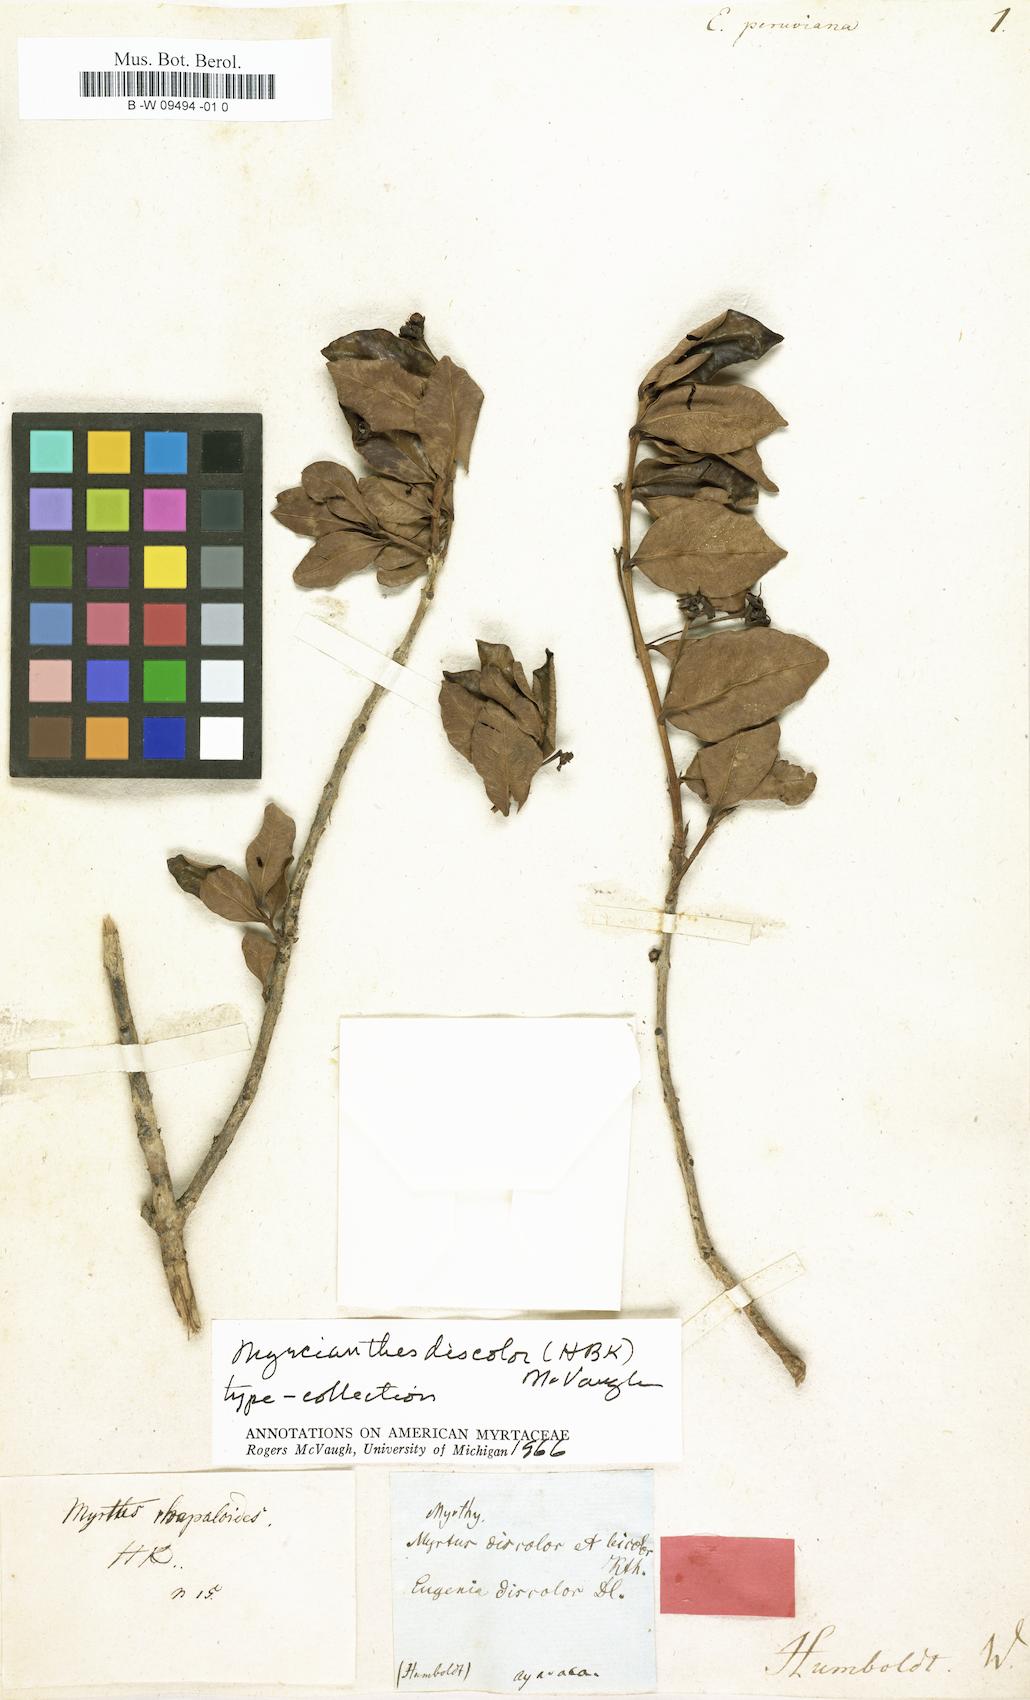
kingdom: Plantae
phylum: Tracheophyta
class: Magnoliopsida
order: Myrtales
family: Myrtaceae
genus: Eugenia
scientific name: Eugenia perriniana
